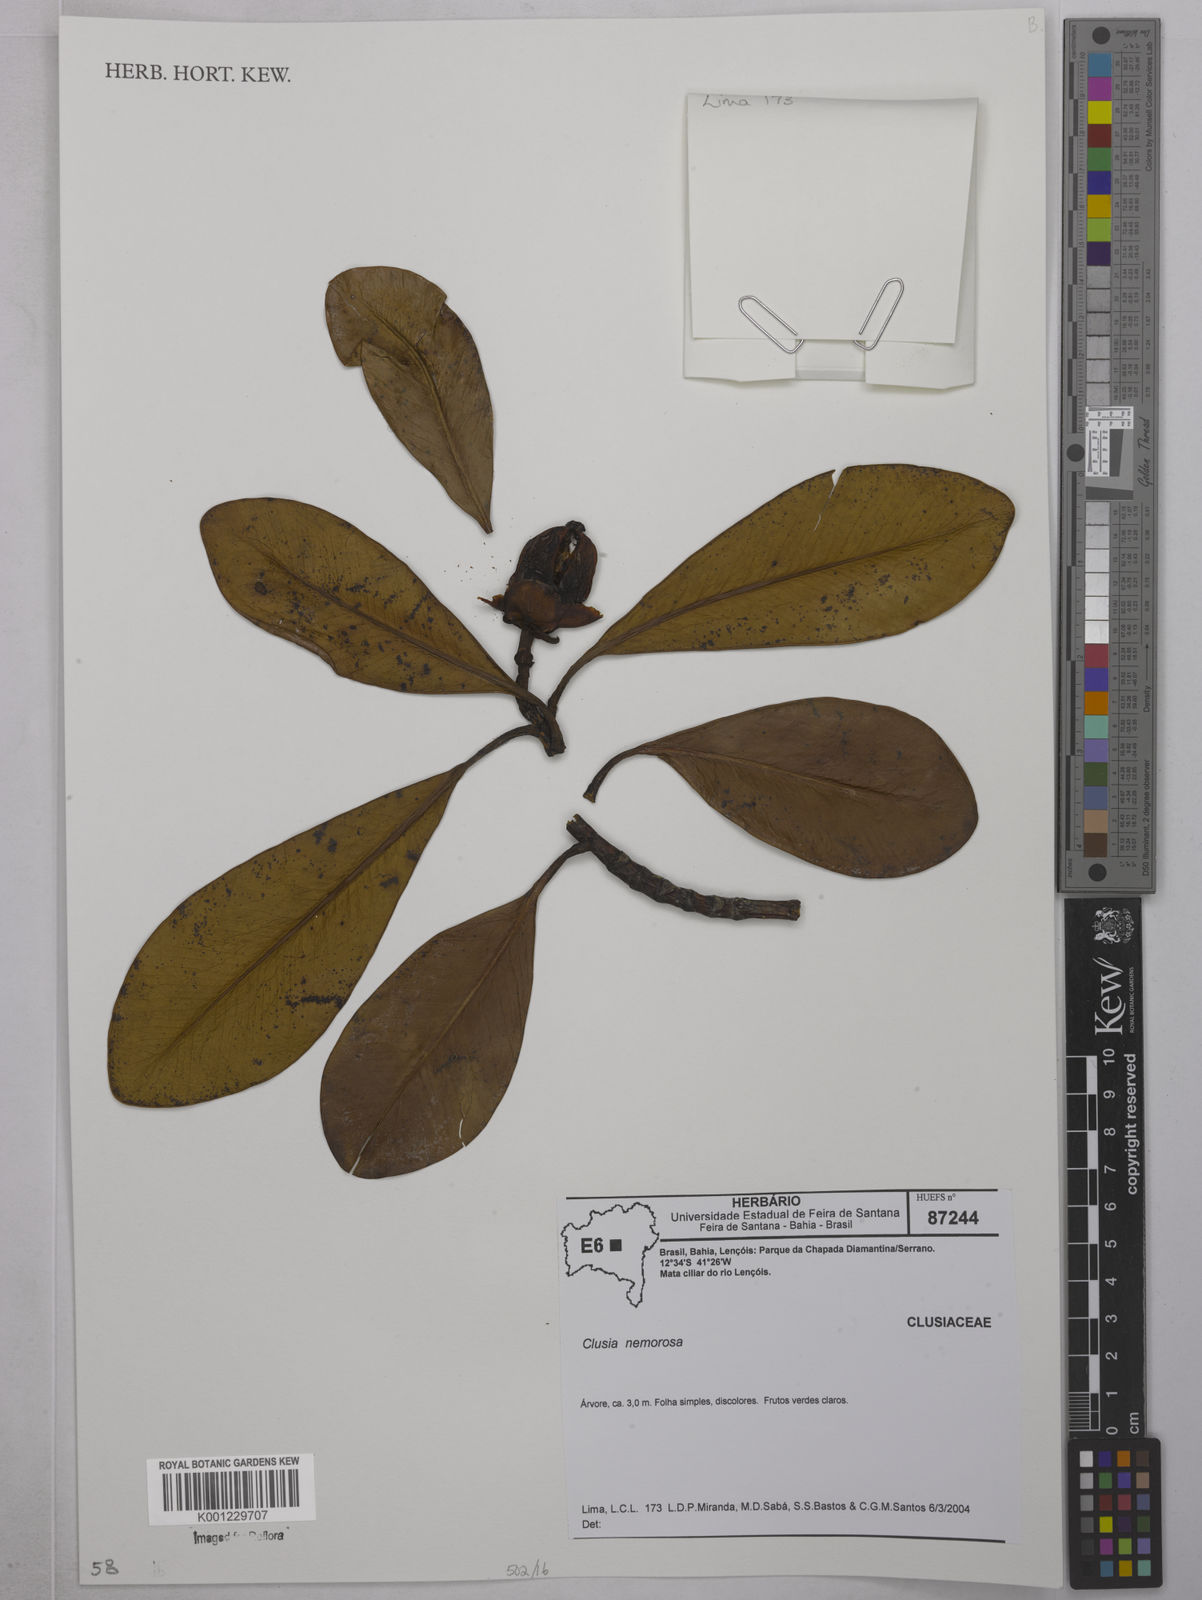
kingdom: Plantae
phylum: Tracheophyta
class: Liliopsida
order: Alismatales
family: Araceae
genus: Anthurium
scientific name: Anthurium harrisii
